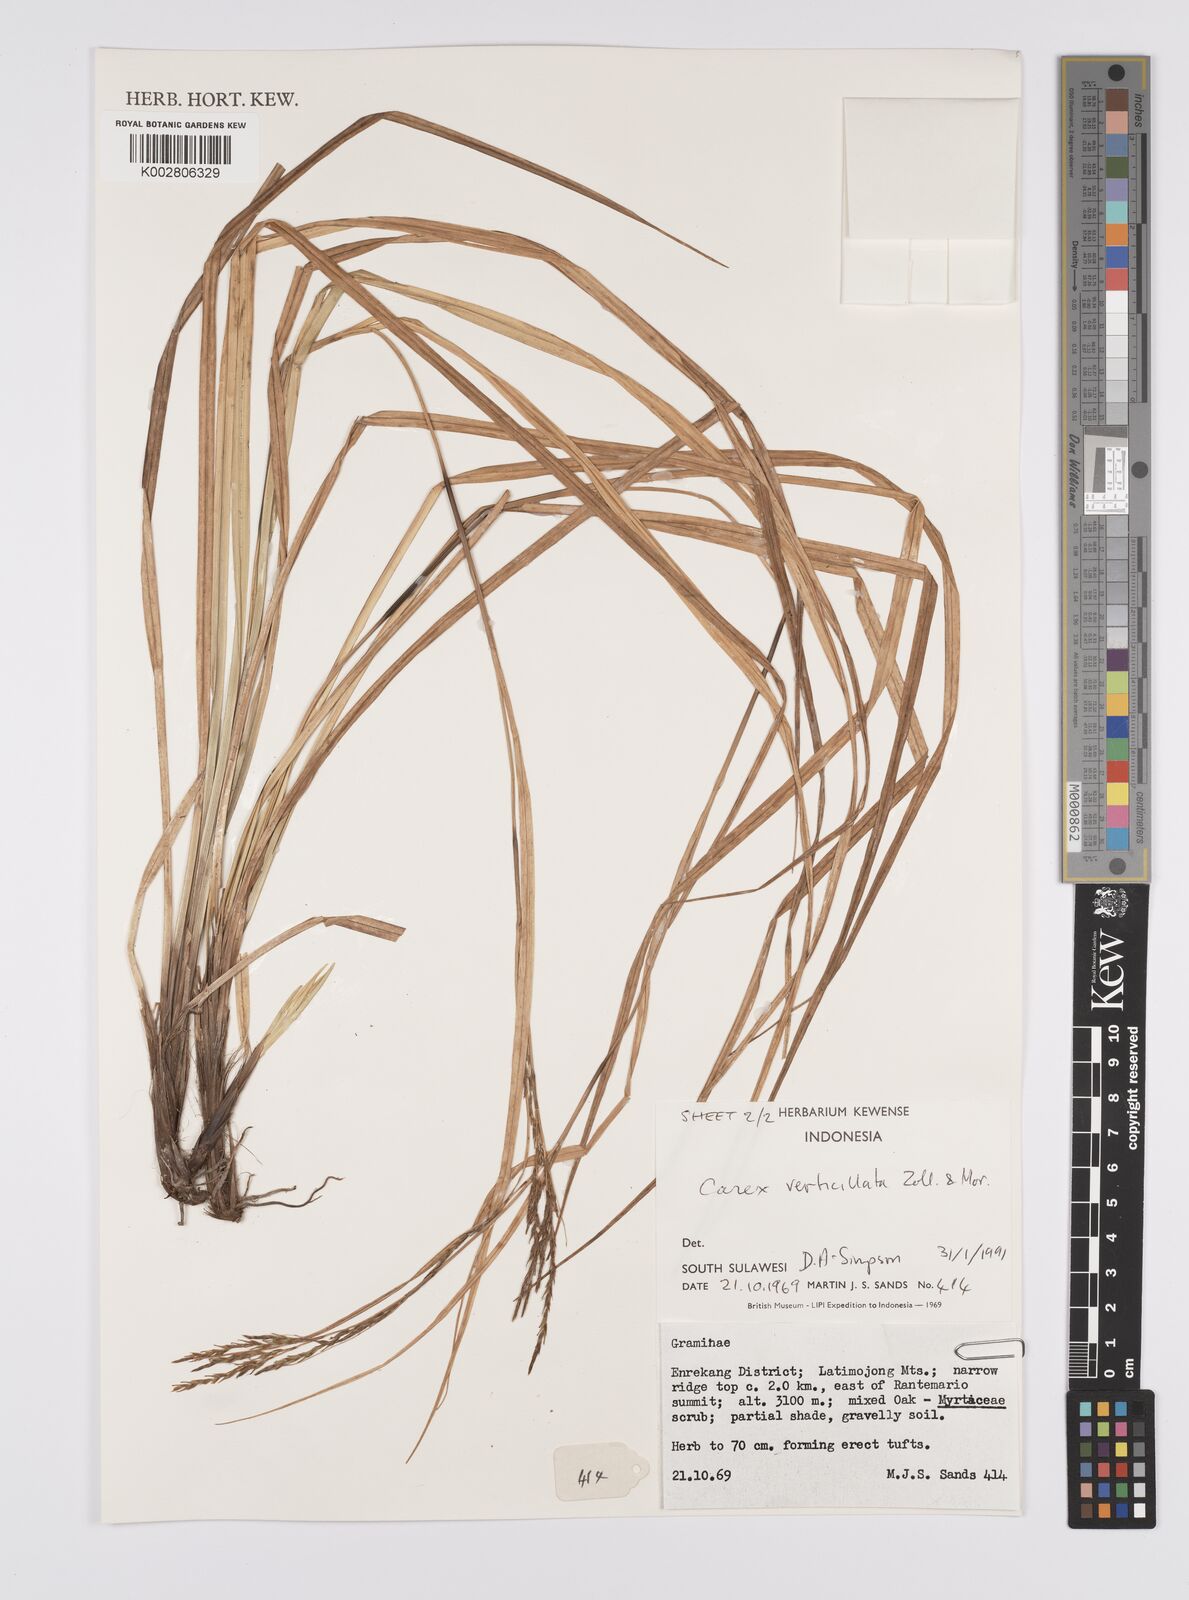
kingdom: Plantae
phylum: Tracheophyta
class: Liliopsida
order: Poales
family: Cyperaceae
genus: Carex
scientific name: Carex verticillata
